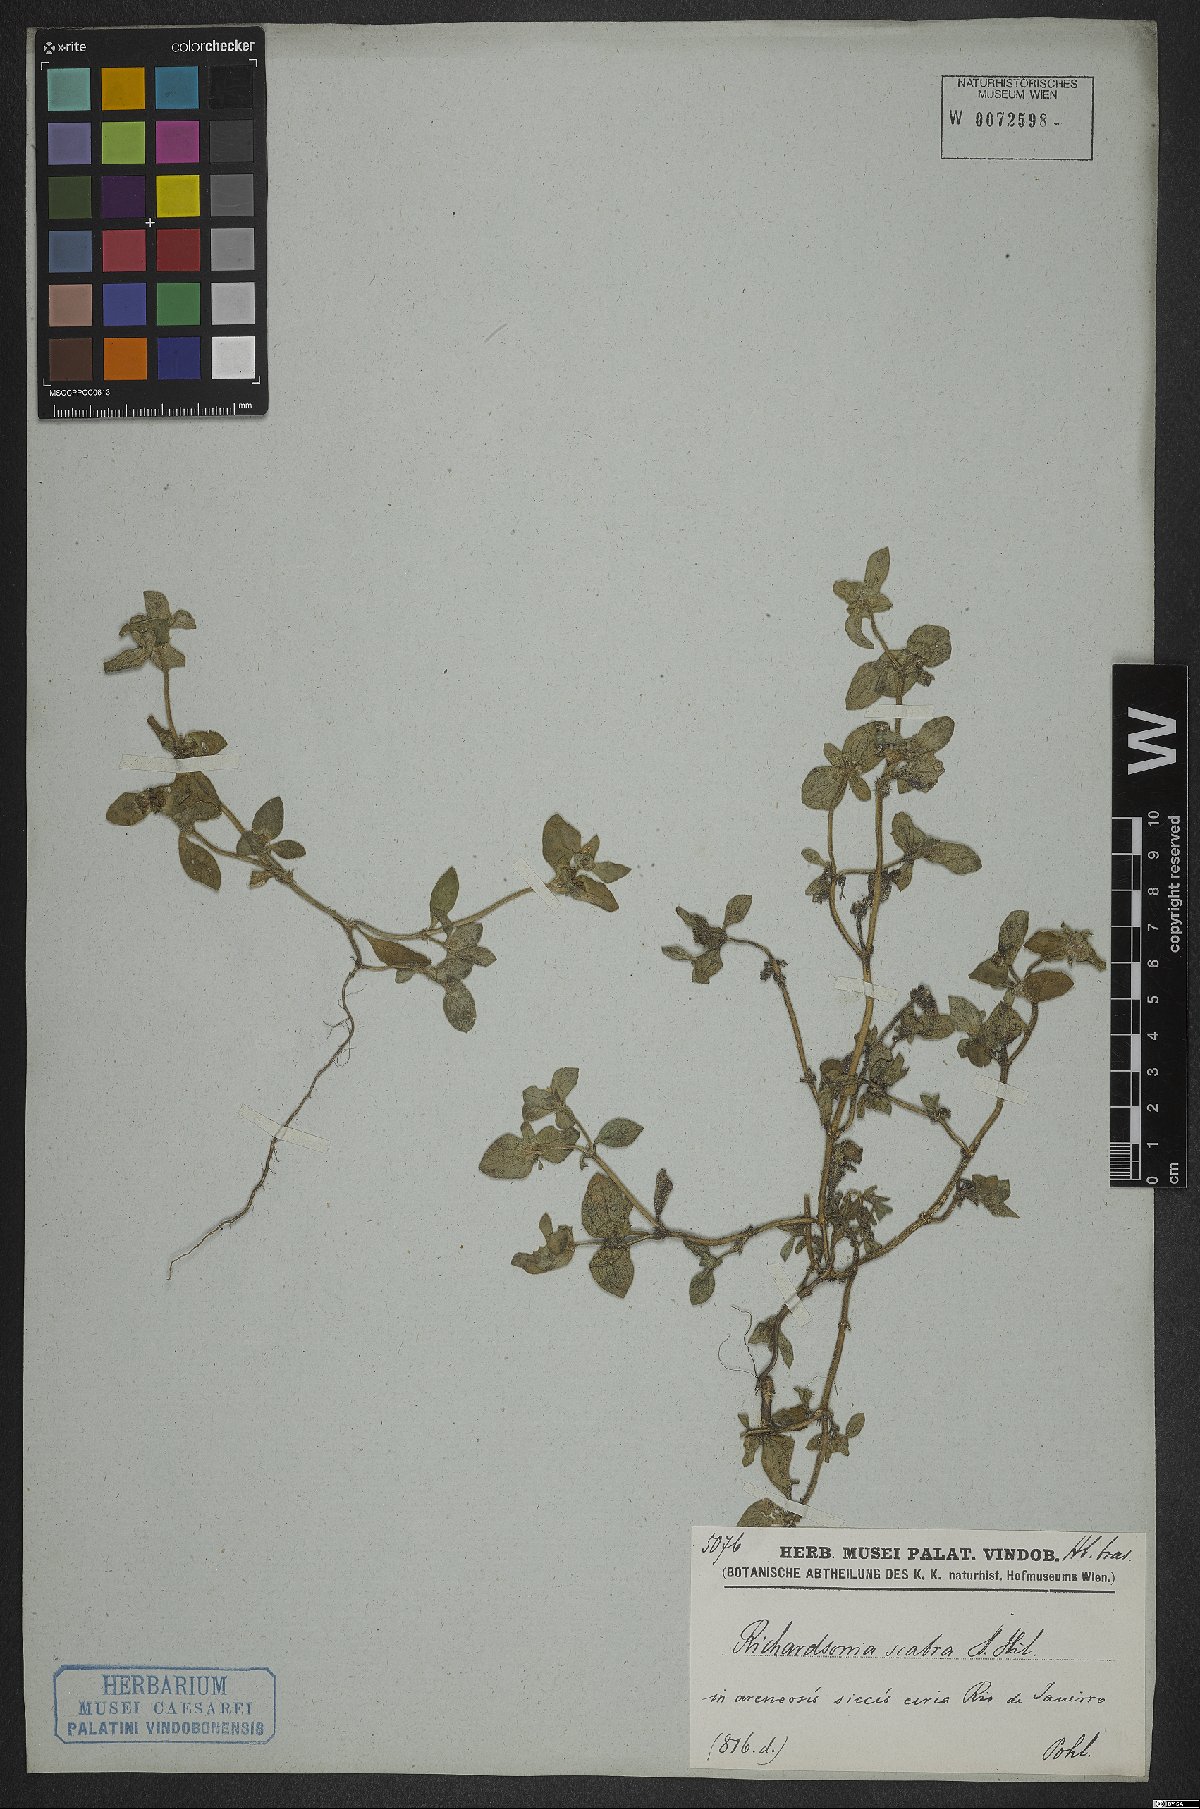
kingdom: Plantae
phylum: Tracheophyta
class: Magnoliopsida
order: Gentianales
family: Rubiaceae
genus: Richardia
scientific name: Richardia scabra
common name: Rough mexican clover
